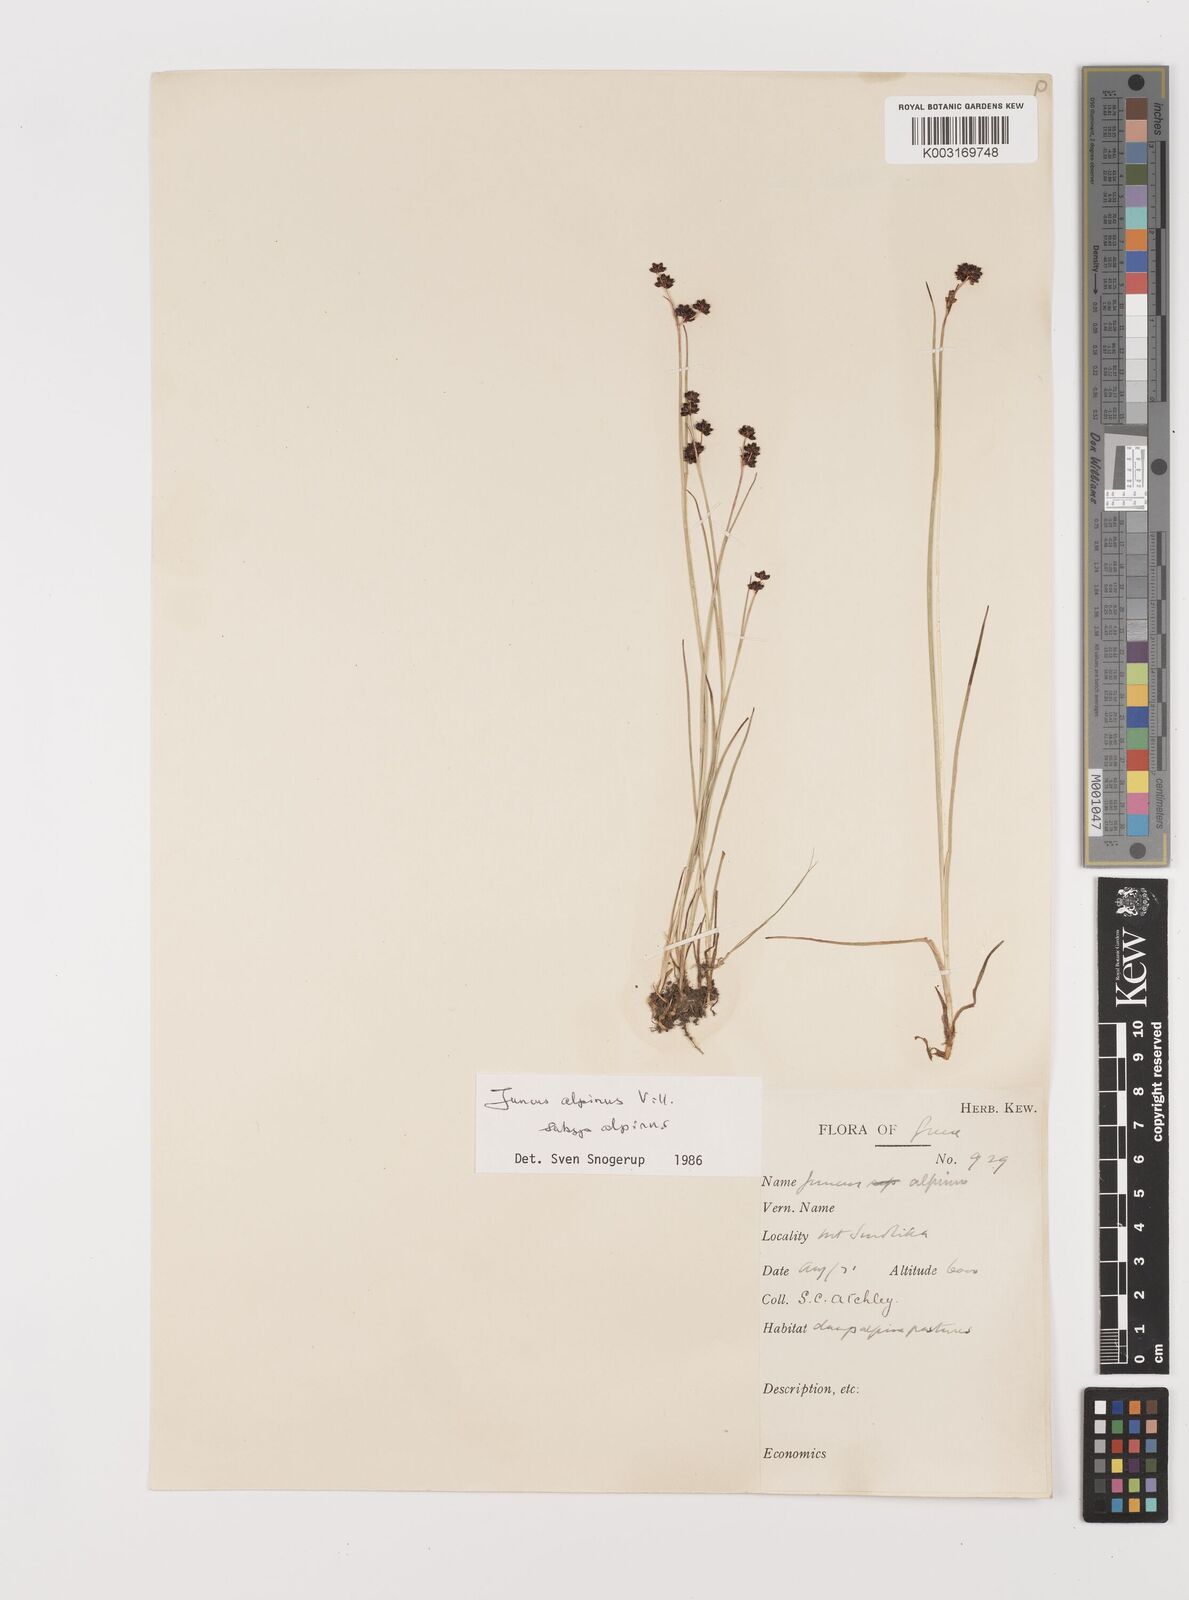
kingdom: Plantae
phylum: Tracheophyta
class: Liliopsida
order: Poales
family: Juncaceae
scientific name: Juncaceae
